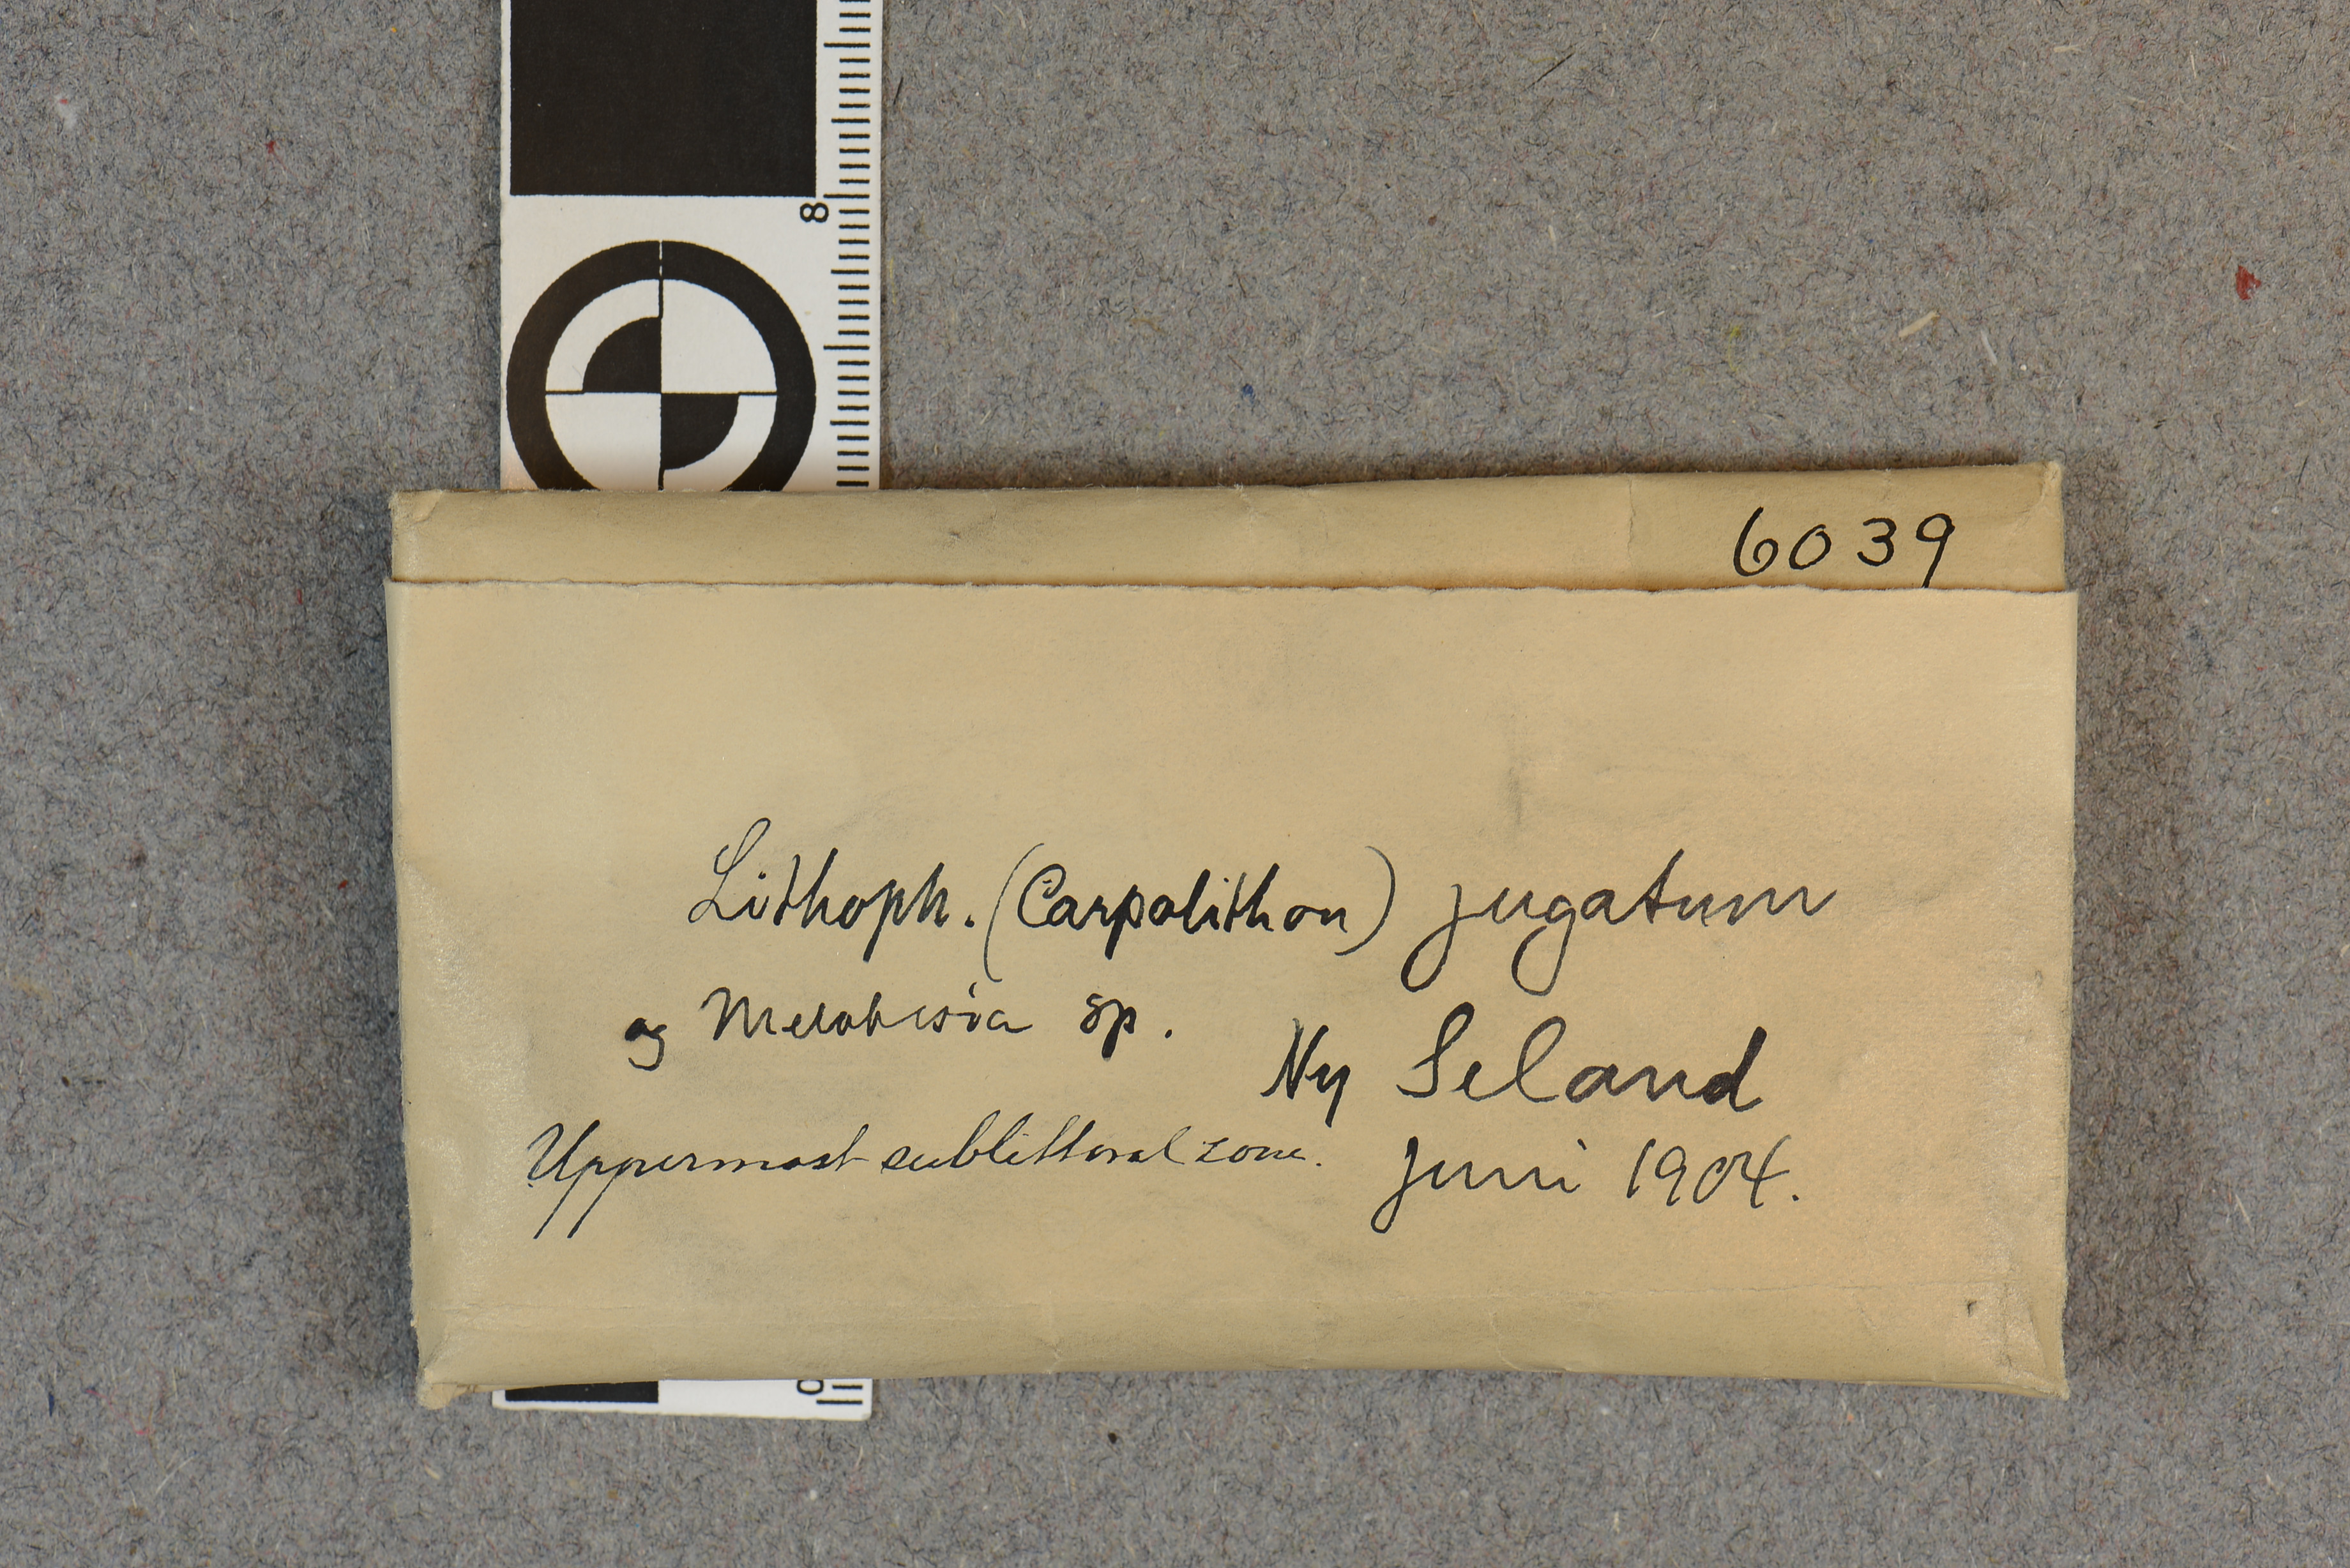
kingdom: Plantae
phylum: Rhodophyta
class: Florideophyceae
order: Corallinales
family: Corallinaceae
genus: Heteroderma
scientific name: Heteroderma jugatum
